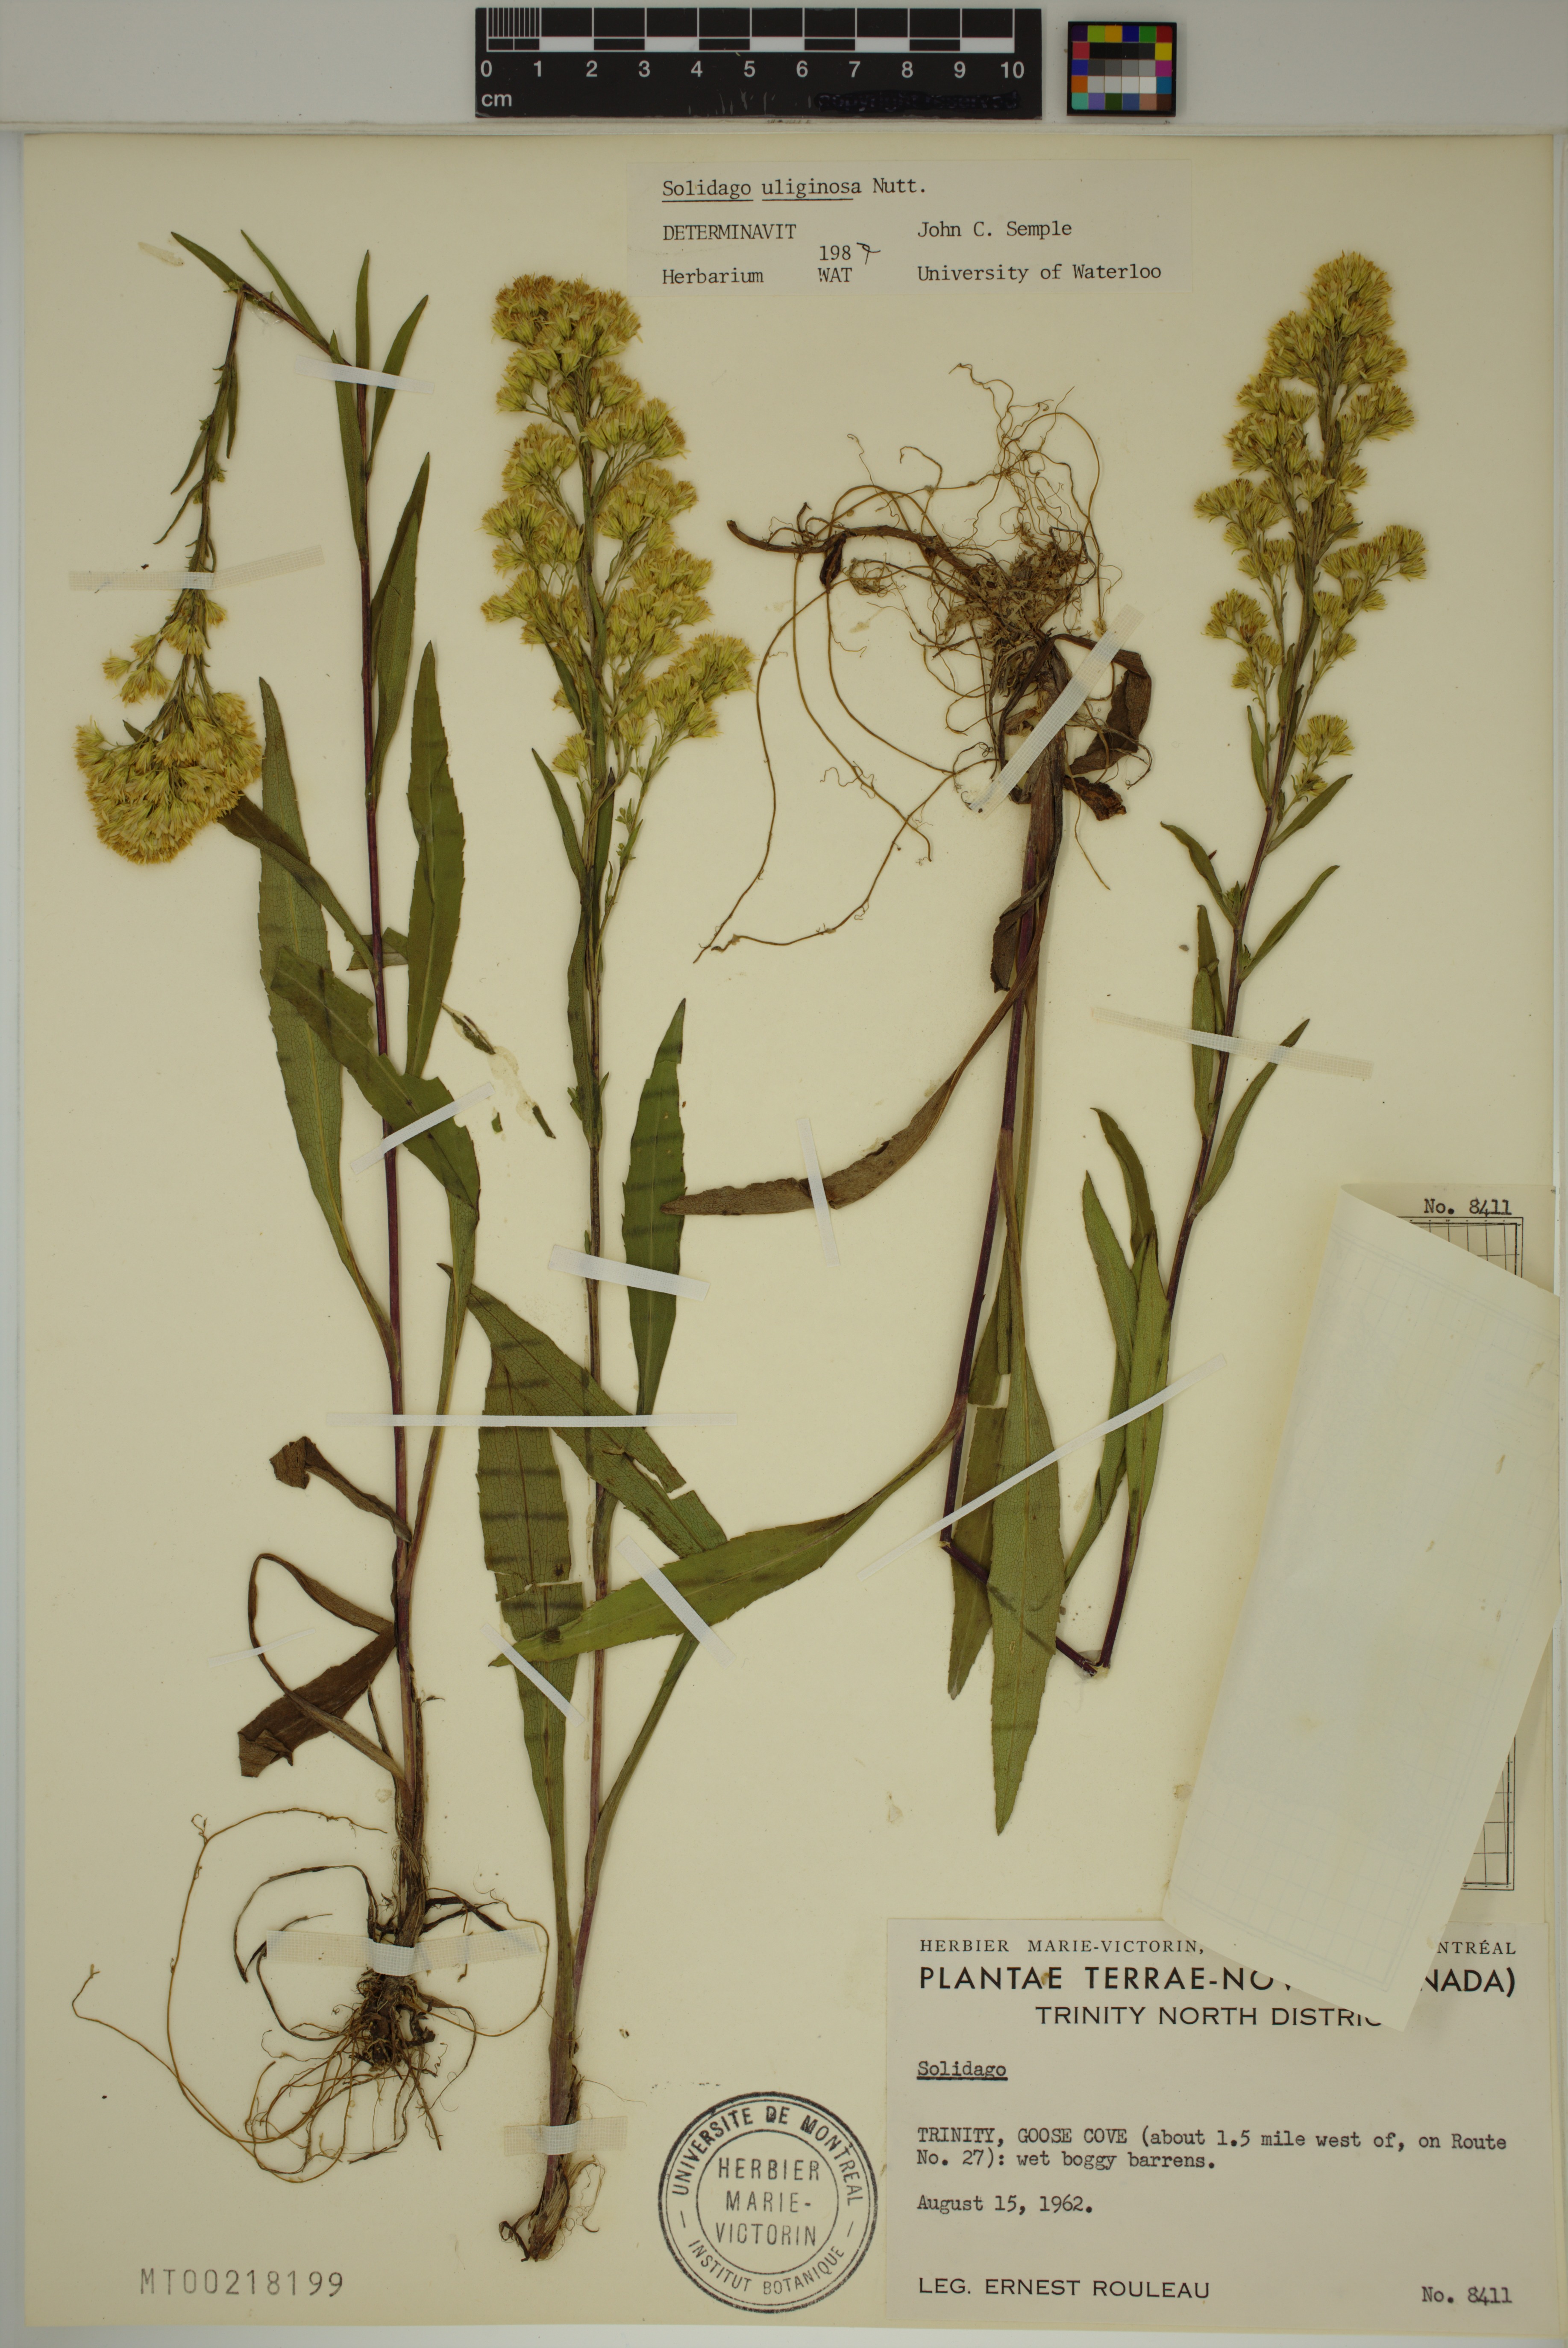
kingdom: Plantae
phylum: Tracheophyta
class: Magnoliopsida
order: Asterales
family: Asteraceae
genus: Solidago
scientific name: Solidago uliginosa
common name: Bog goldenrod
